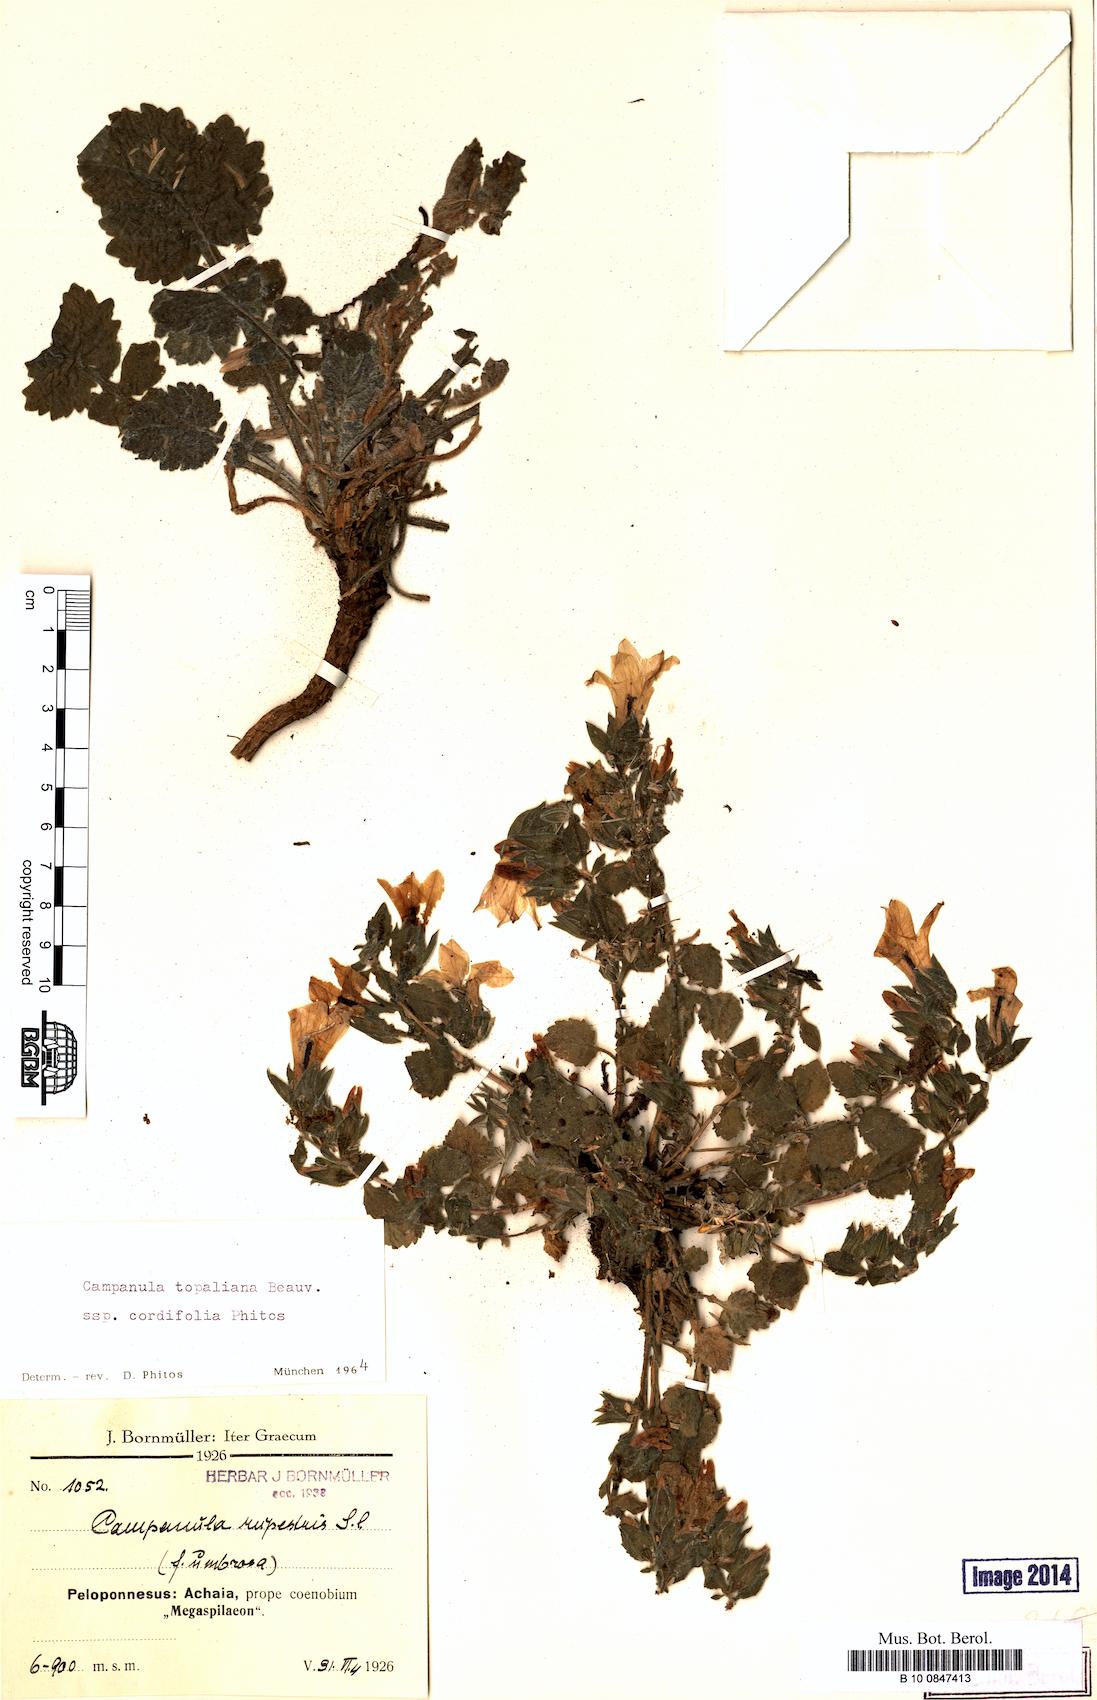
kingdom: Plantae
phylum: Tracheophyta
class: Magnoliopsida
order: Asterales
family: Campanulaceae
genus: Campanula
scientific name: Campanula topaliana
